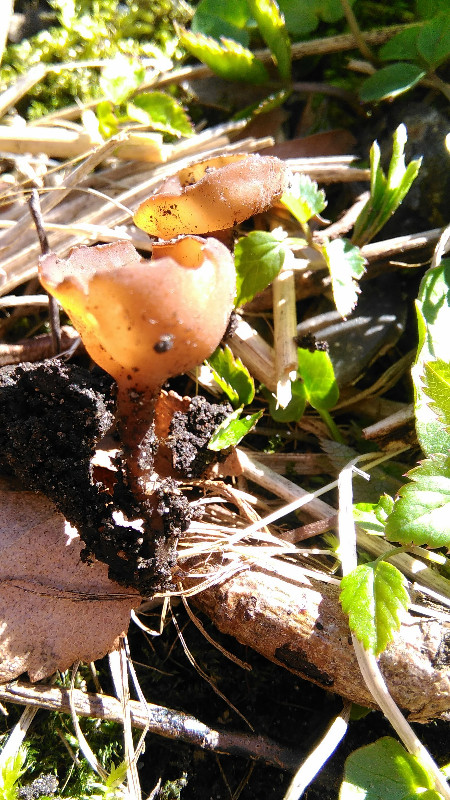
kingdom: Fungi
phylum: Ascomycota
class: Leotiomycetes
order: Helotiales
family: Sclerotiniaceae
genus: Dumontinia
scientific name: Dumontinia tuberosa
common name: anemone-knoldskive
